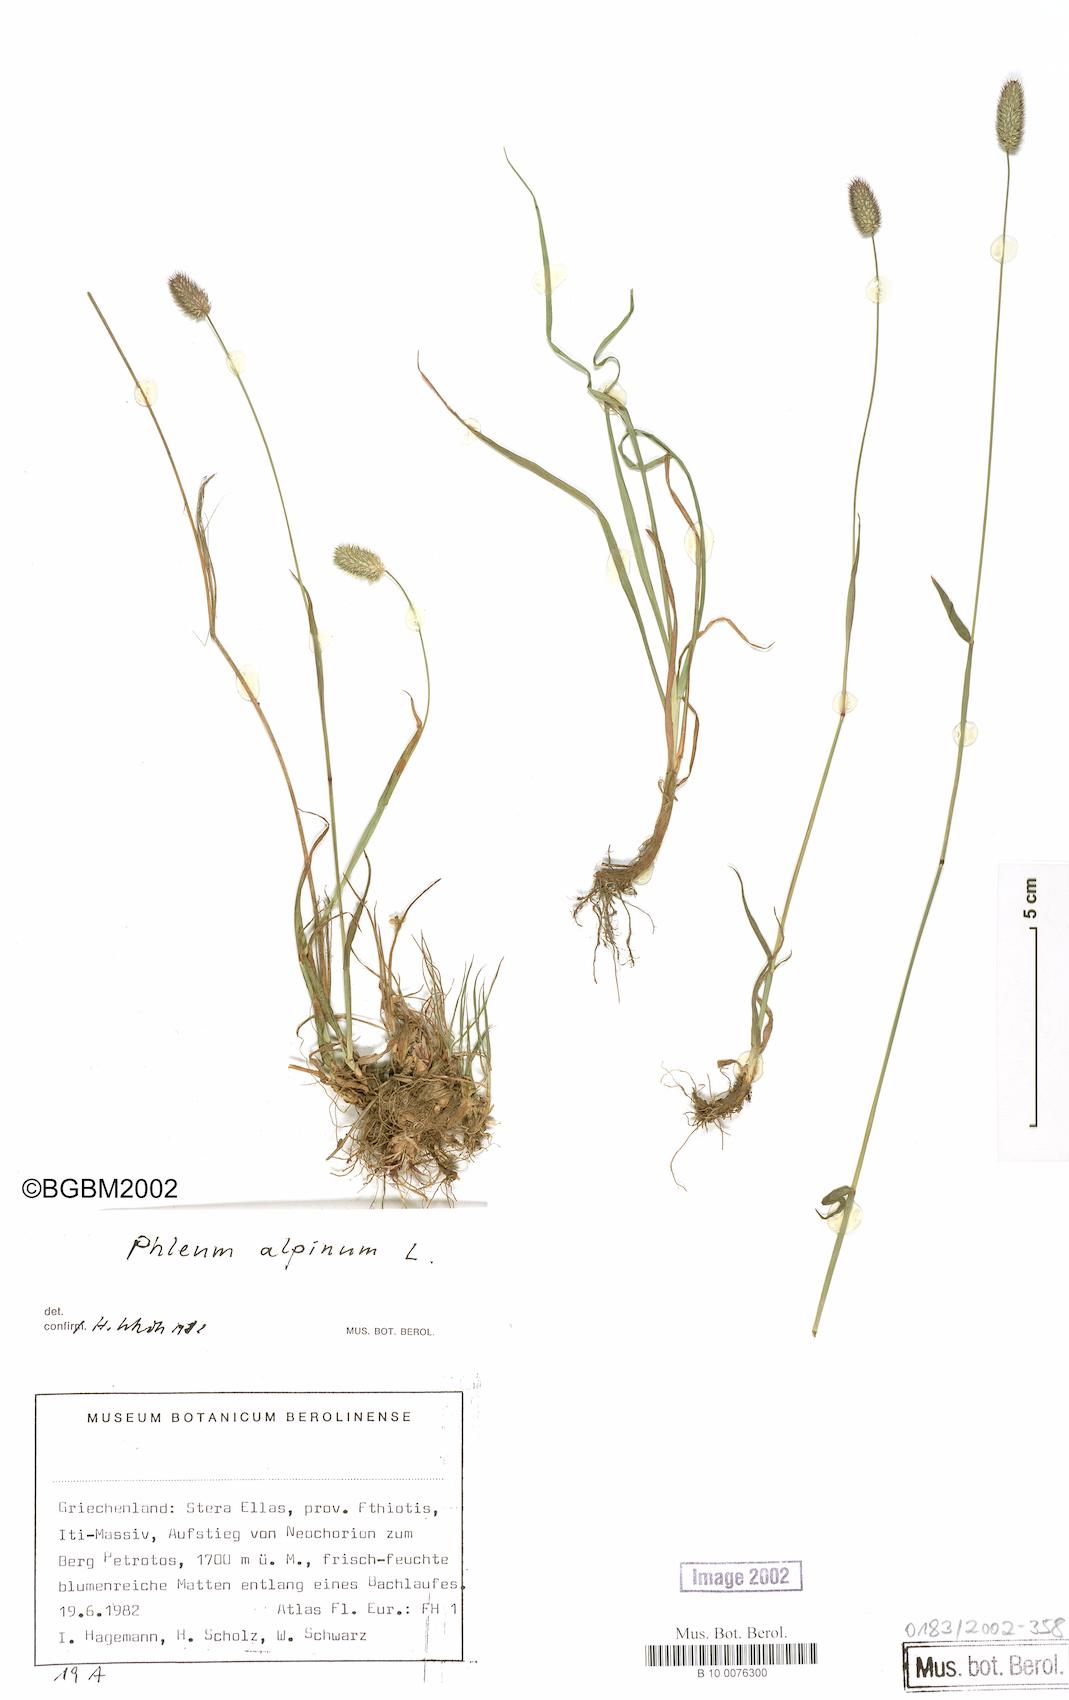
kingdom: Plantae
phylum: Tracheophyta
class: Liliopsida
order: Poales
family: Poaceae
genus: Phleum
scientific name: Phleum alpinum
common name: Alpine cat's-tail
